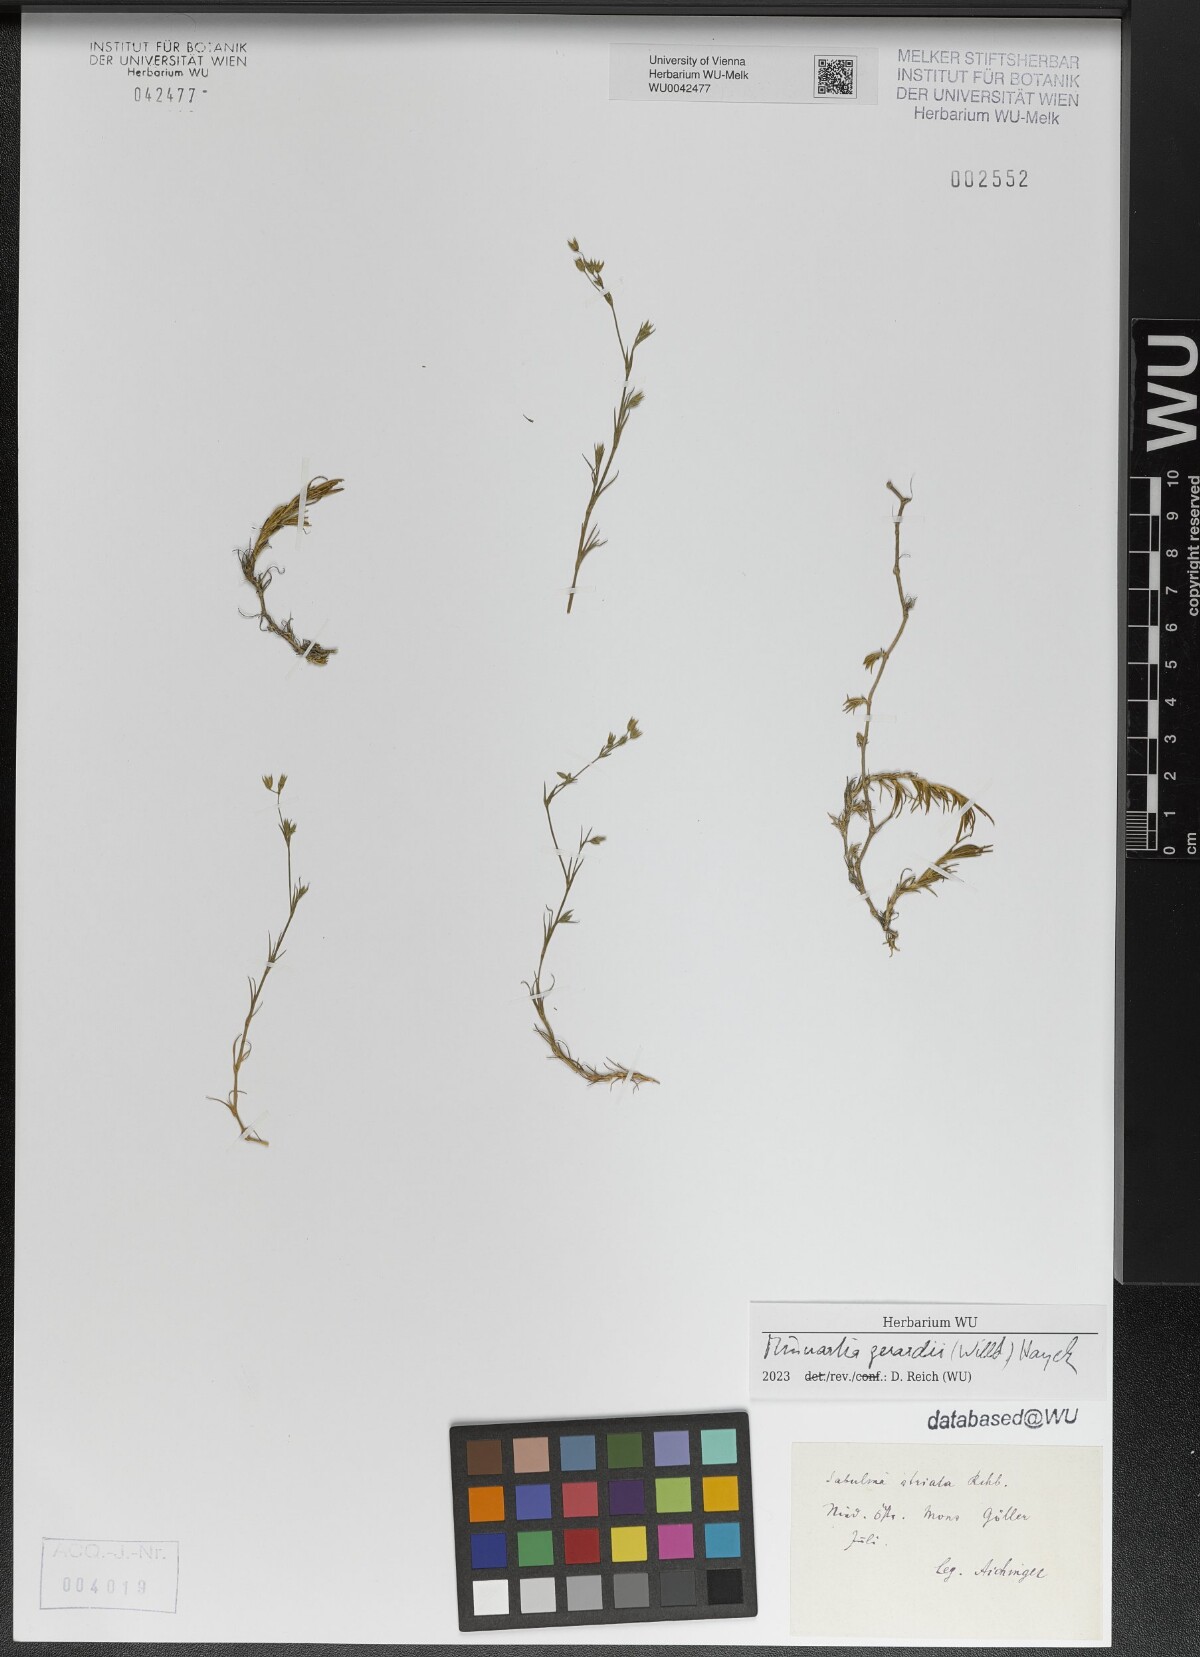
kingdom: Plantae
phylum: Tracheophyta
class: Magnoliopsida
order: Caryophyllales
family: Caryophyllaceae
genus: Sabulina
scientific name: Sabulina verna
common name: Spring sandwort
